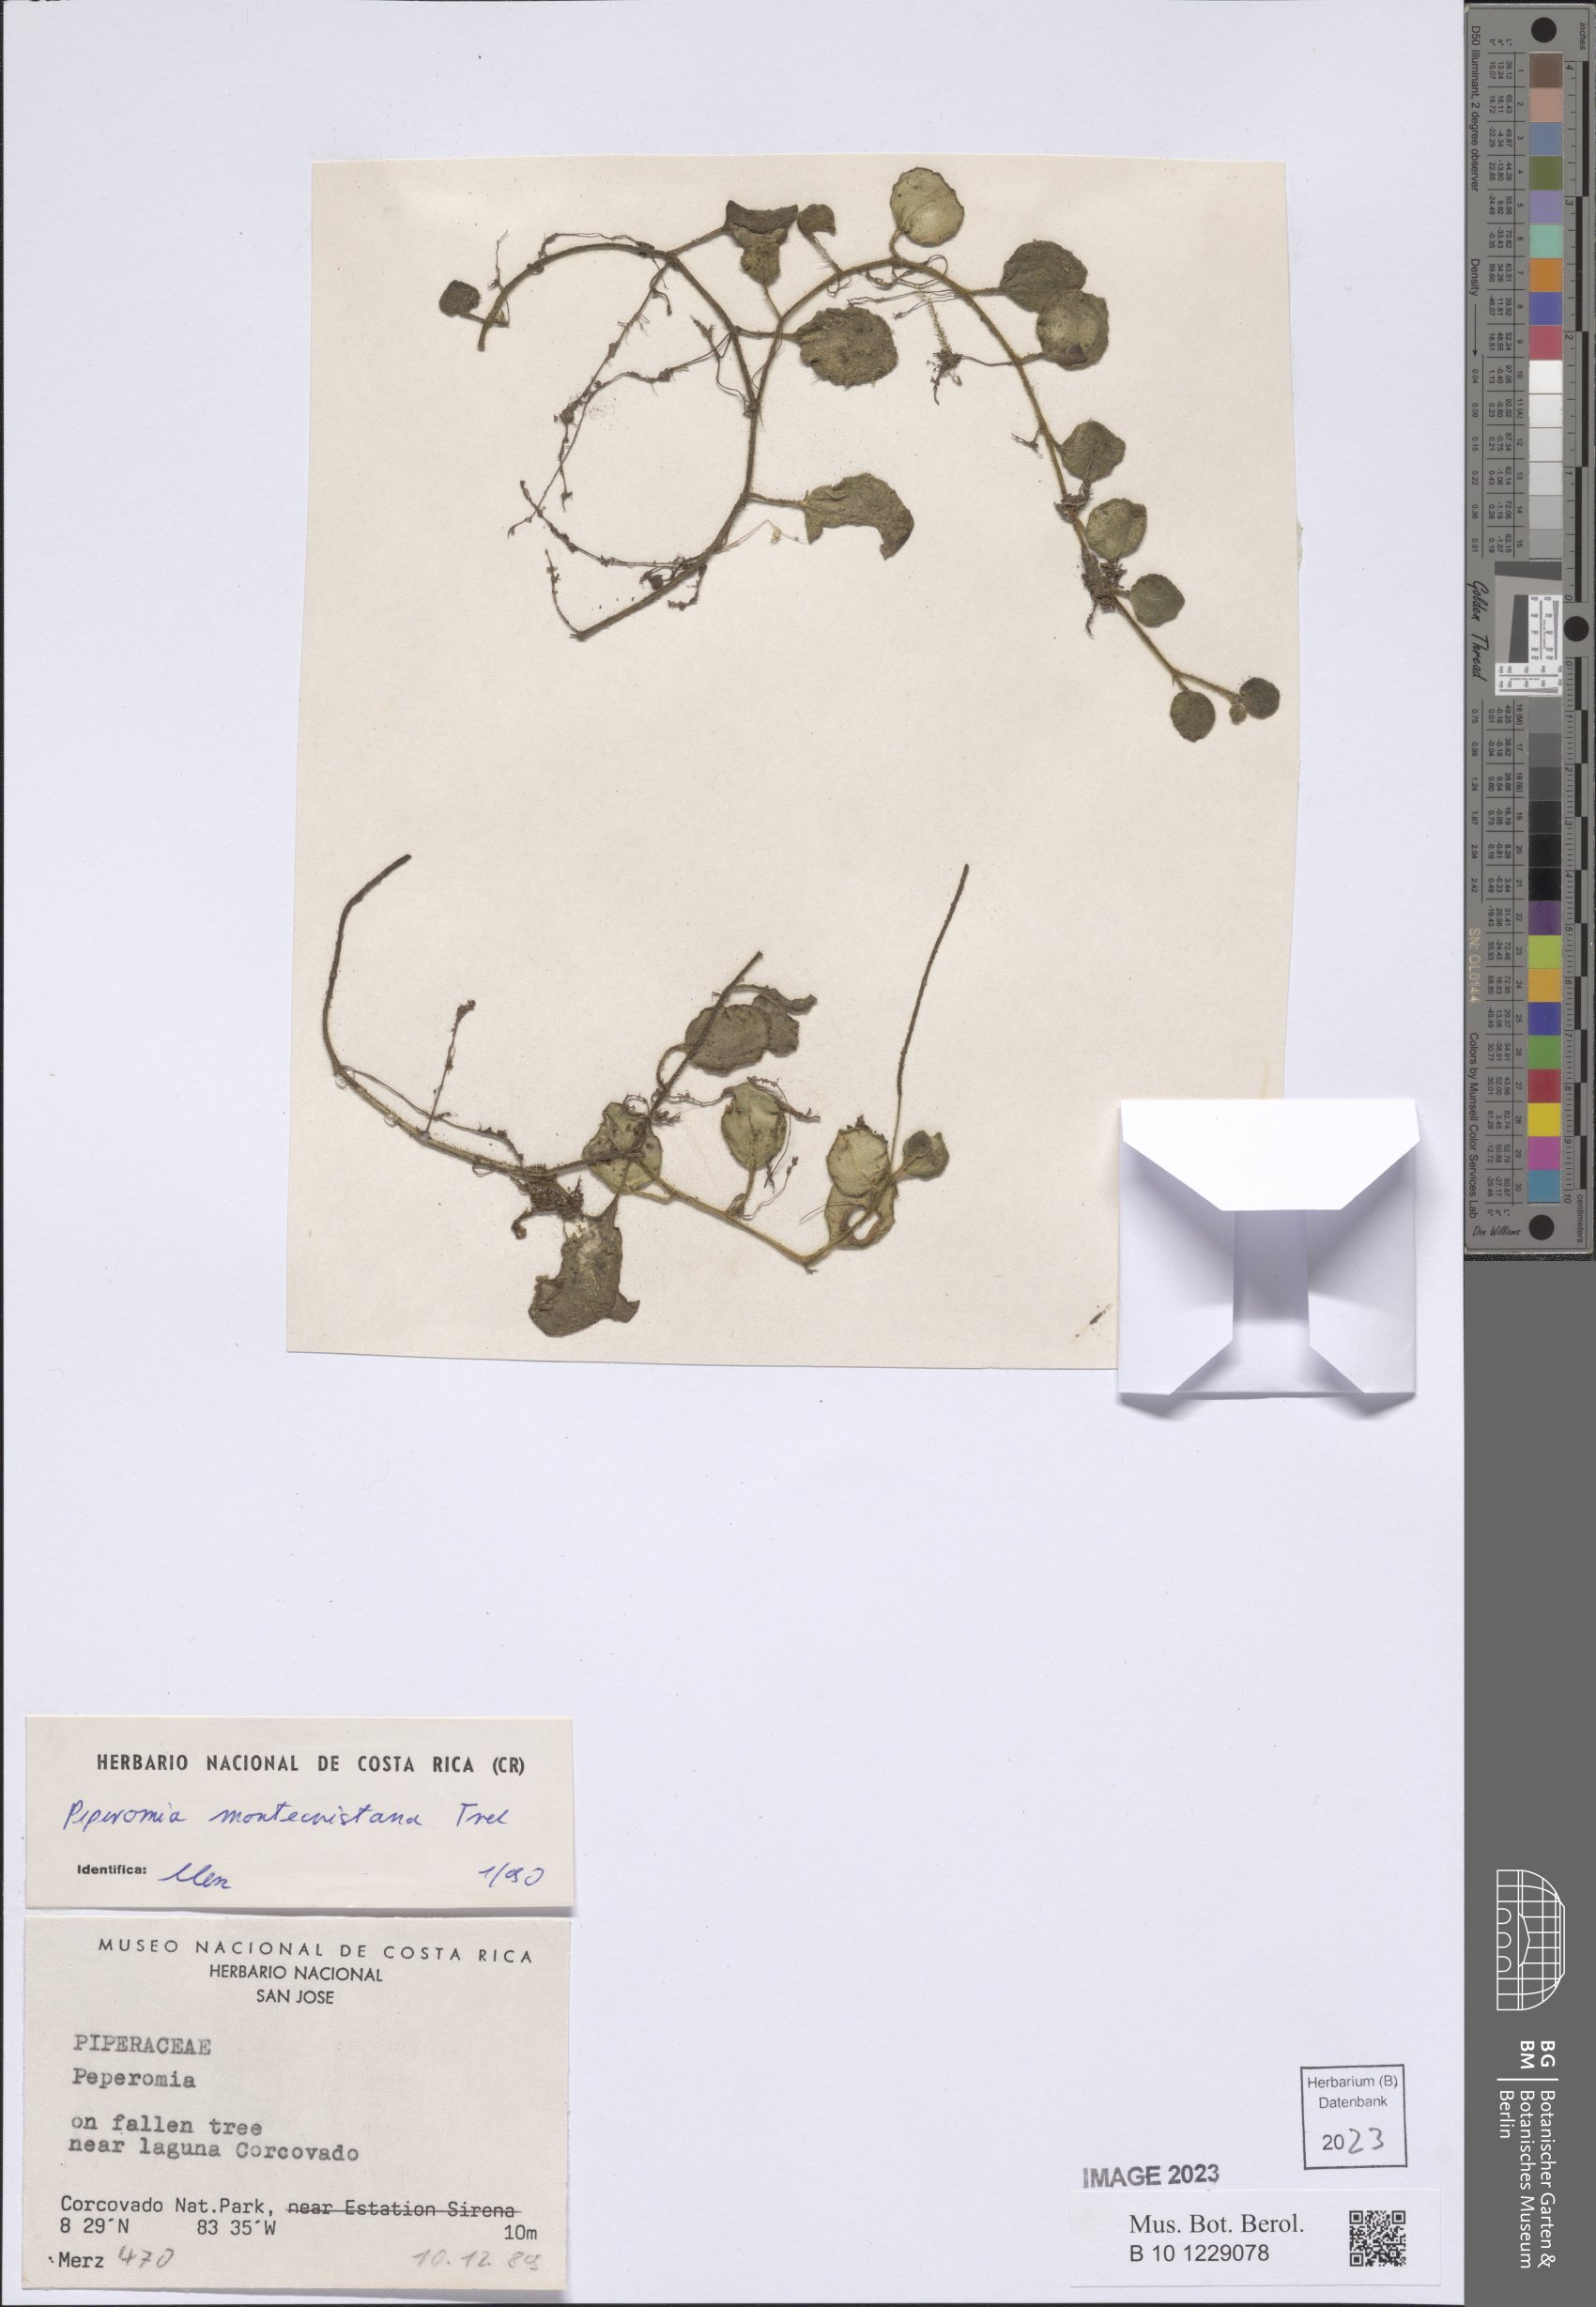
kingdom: Plantae
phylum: Tracheophyta
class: Magnoliopsida
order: Piperales
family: Piperaceae
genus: Peperomia
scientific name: Peperomia montecristana
